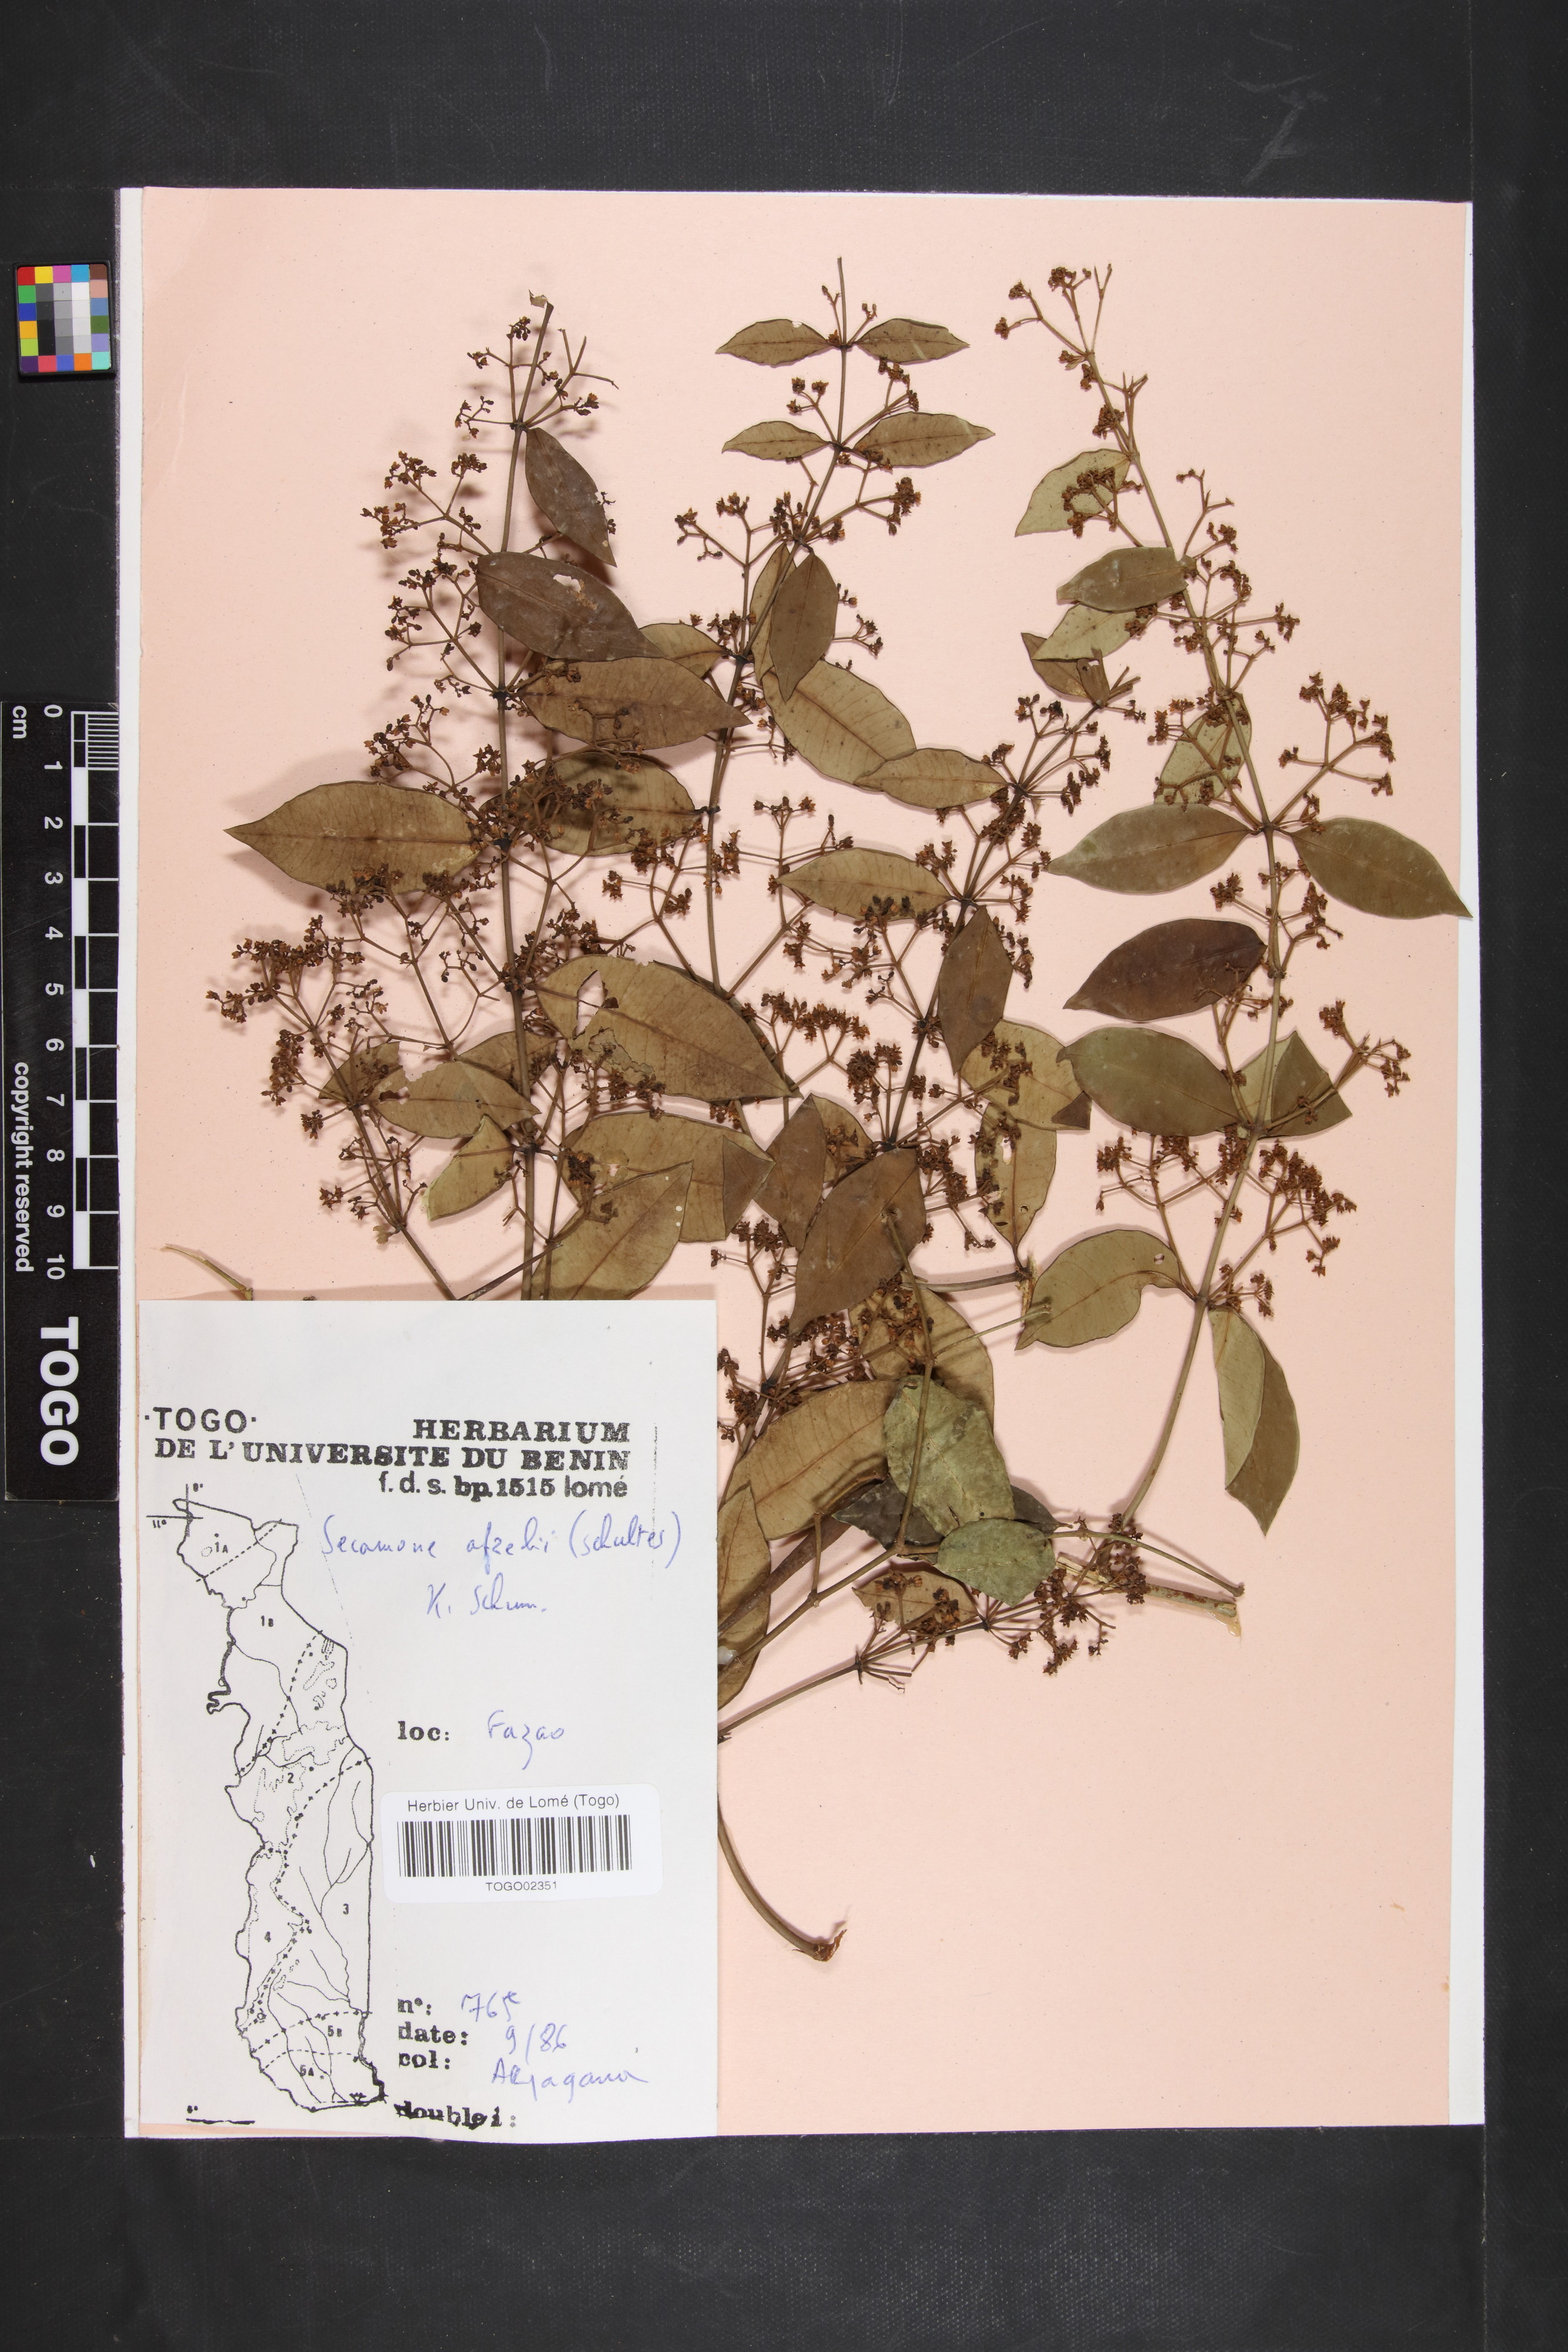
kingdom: Plantae
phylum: Tracheophyta
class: Magnoliopsida
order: Gentianales
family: Apocynaceae
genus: Secamone
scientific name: Secamone afzelii
